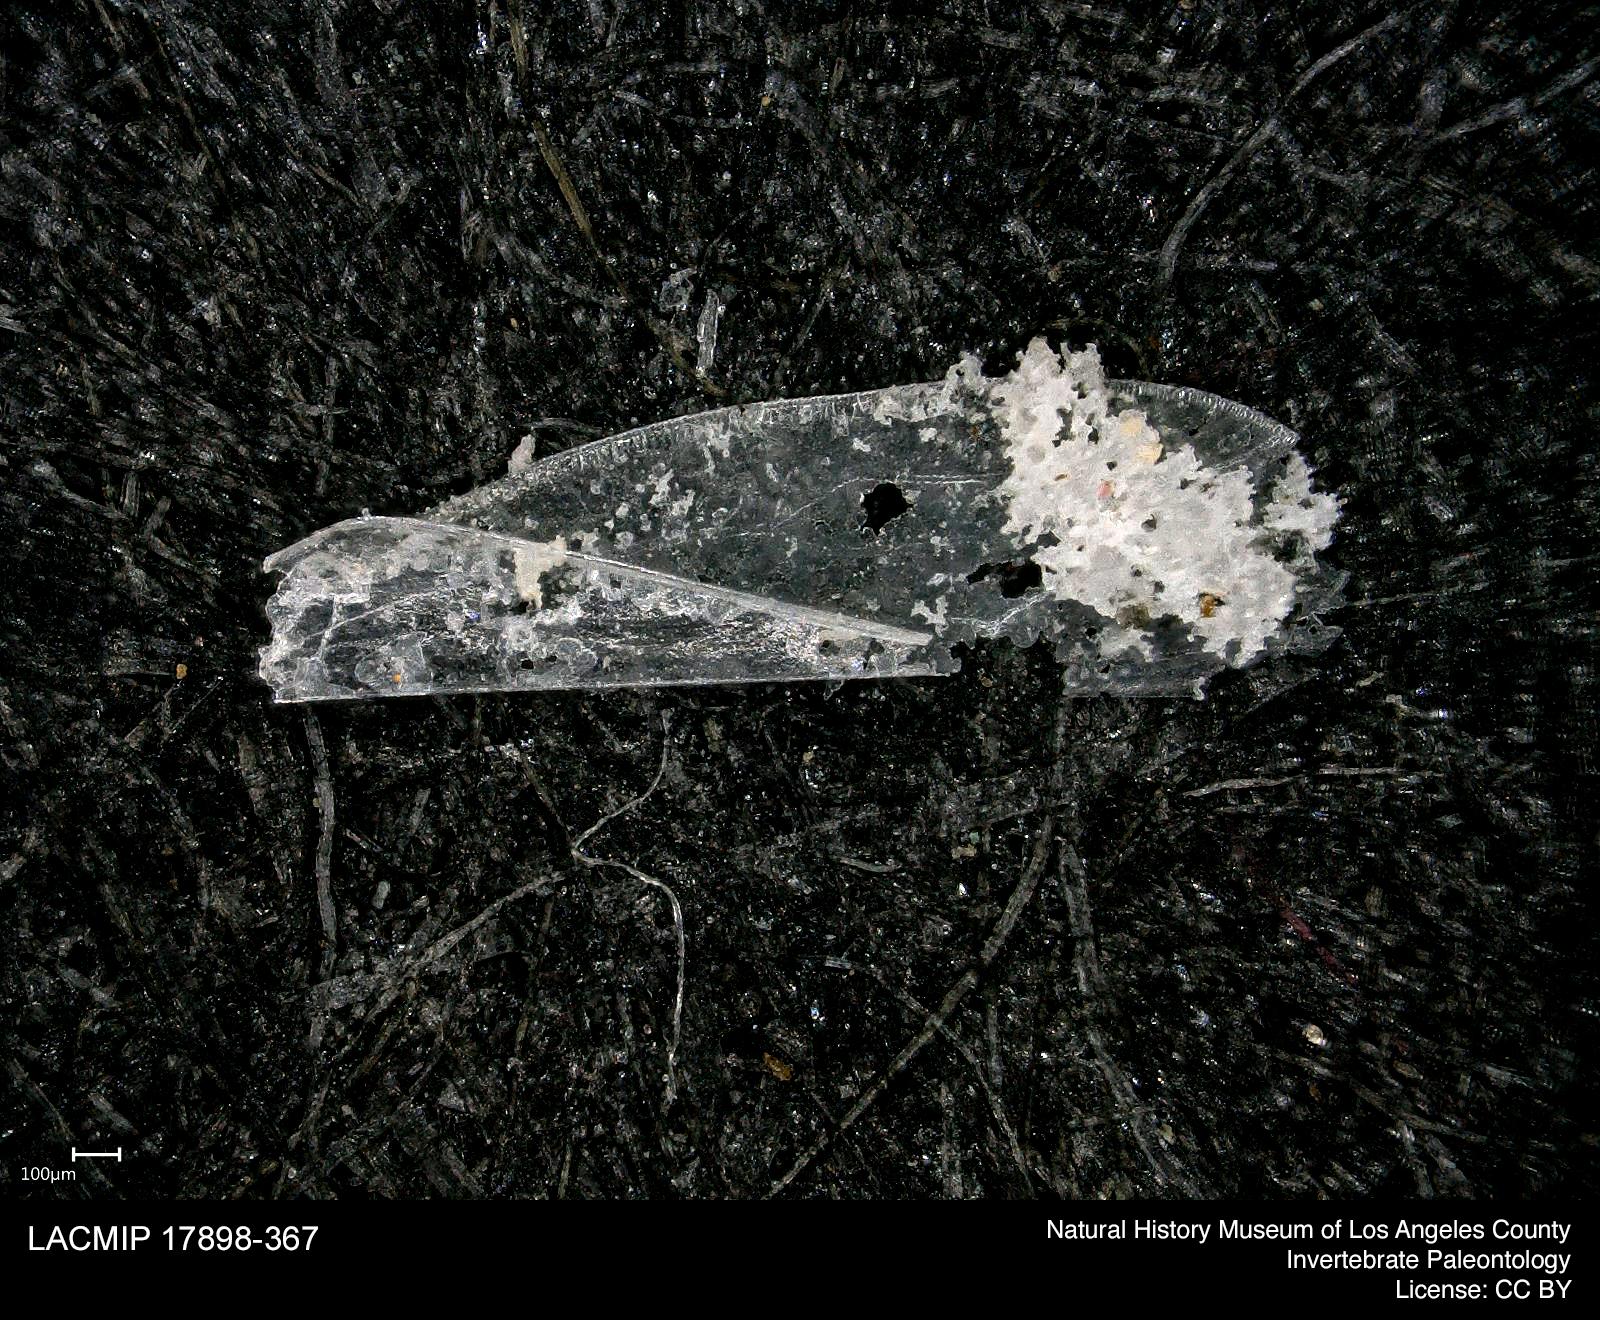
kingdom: Animalia
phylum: Arthropoda
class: Insecta
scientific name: Insecta
